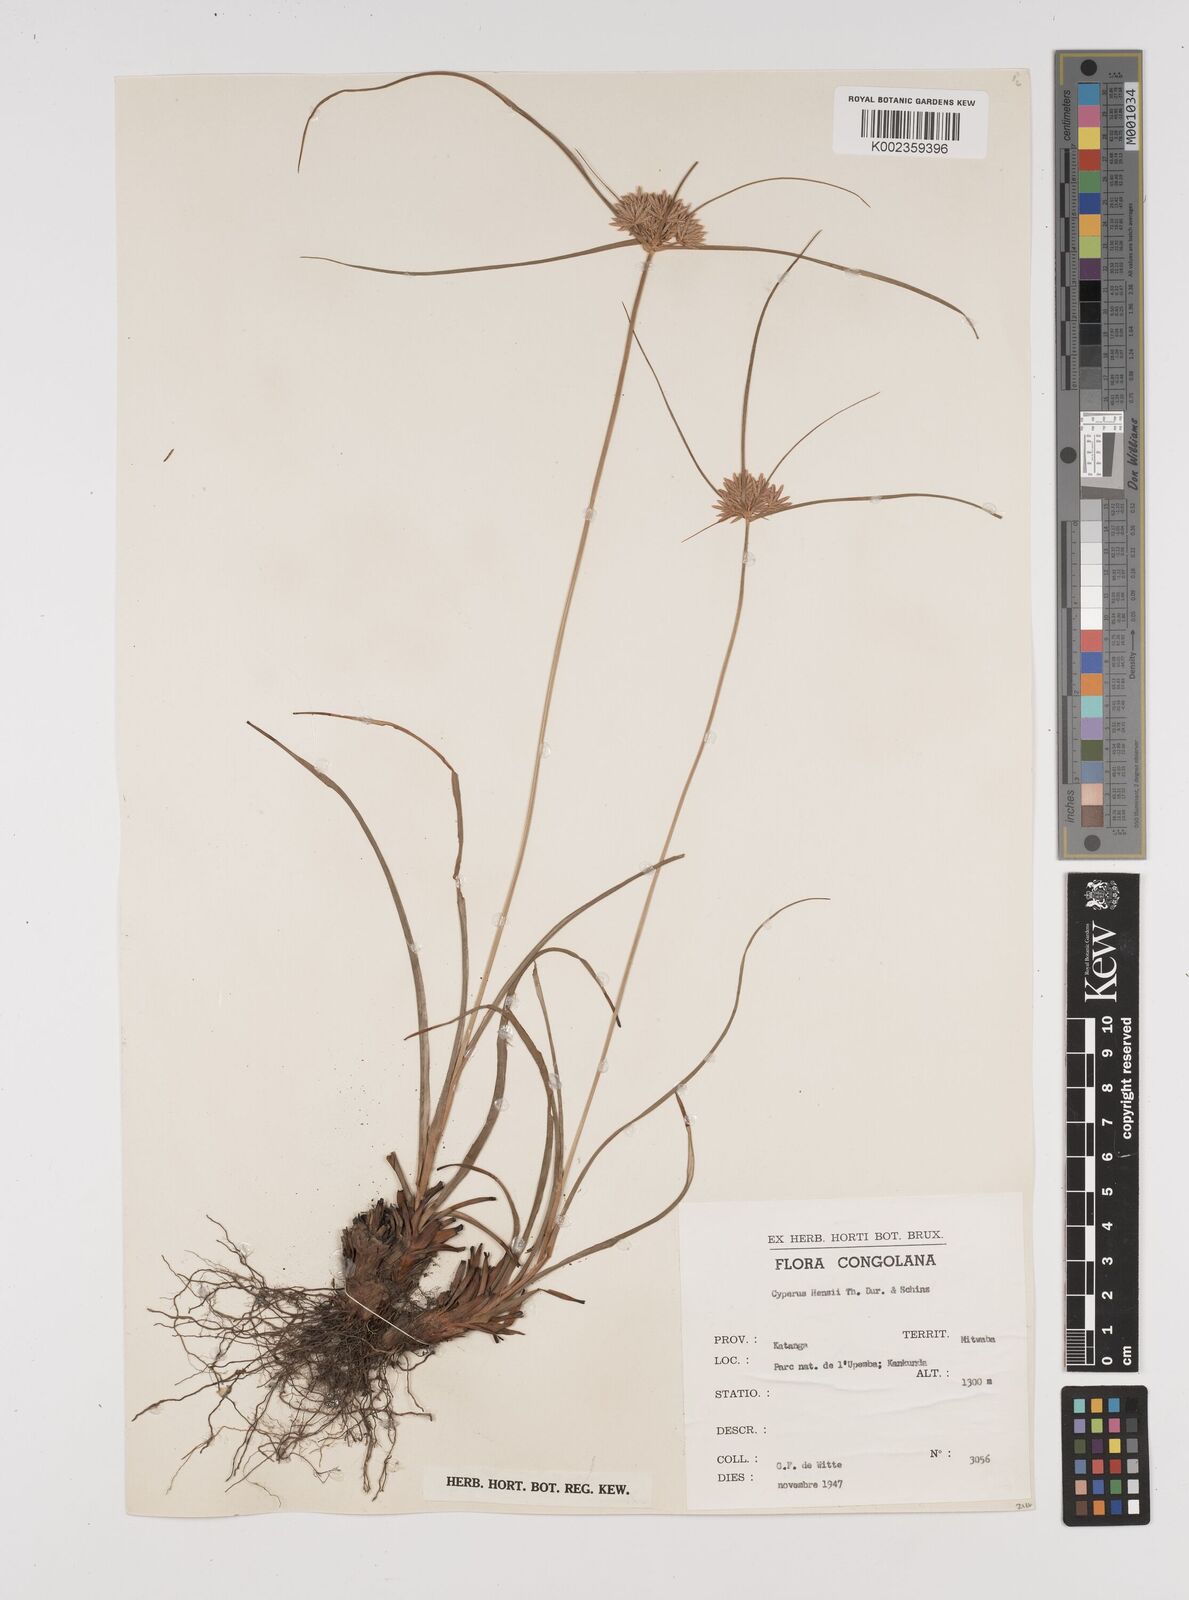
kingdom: Plantae
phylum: Tracheophyta
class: Liliopsida
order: Poales
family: Cyperaceae
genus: Cyperus
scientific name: Cyperus
